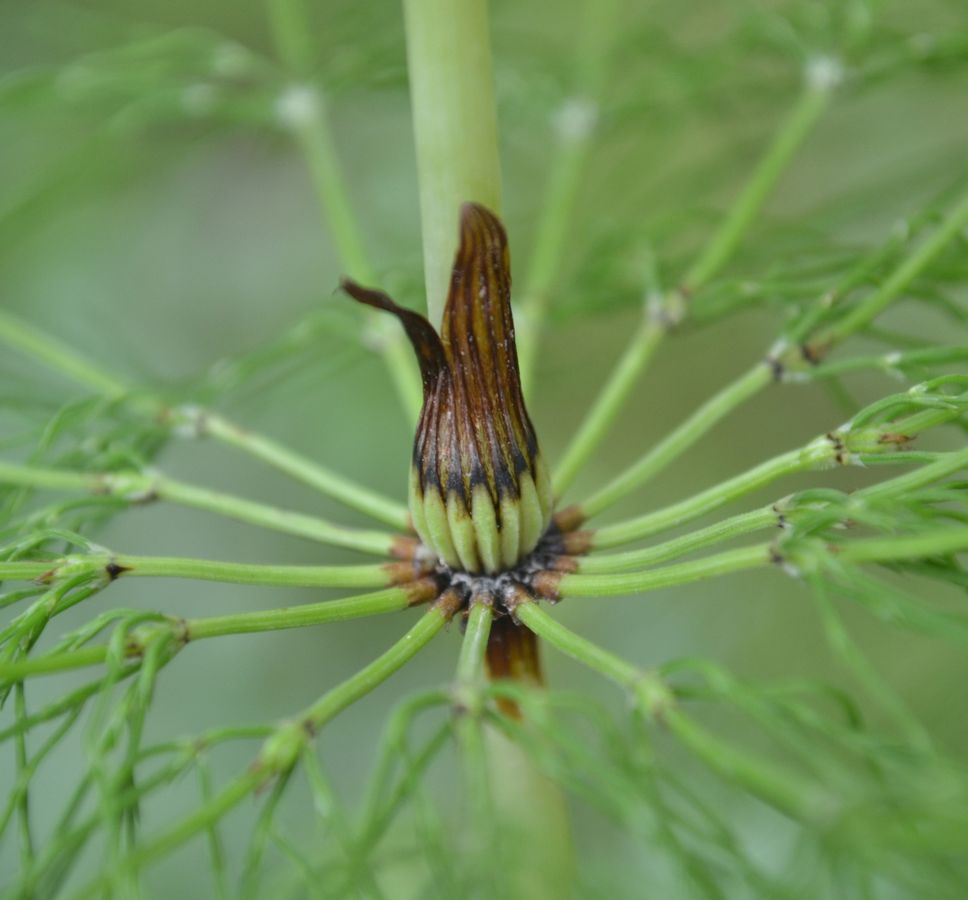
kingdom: Plantae
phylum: Tracheophyta
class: Polypodiopsida
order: Equisetales
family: Equisetaceae
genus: Equisetum
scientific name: Equisetum arvense
